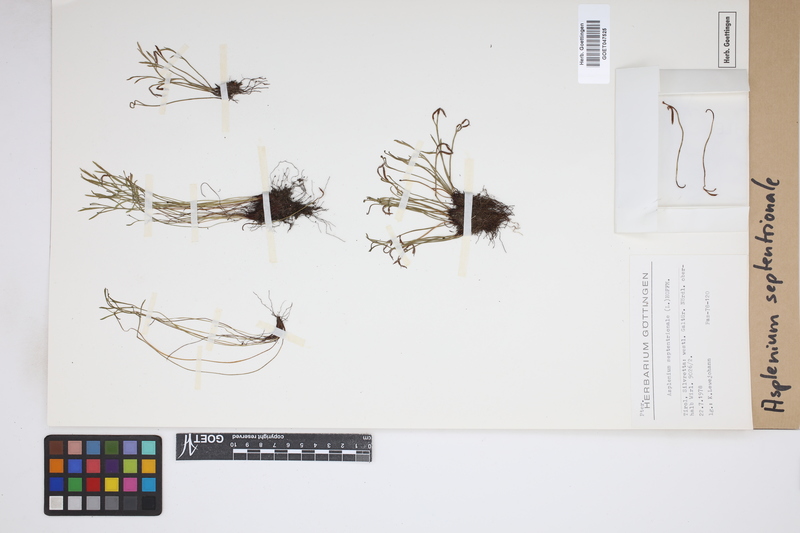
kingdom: Plantae
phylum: Tracheophyta
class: Polypodiopsida
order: Polypodiales
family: Aspleniaceae
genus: Asplenium
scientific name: Asplenium septentrionale
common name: Forked spleenwort
